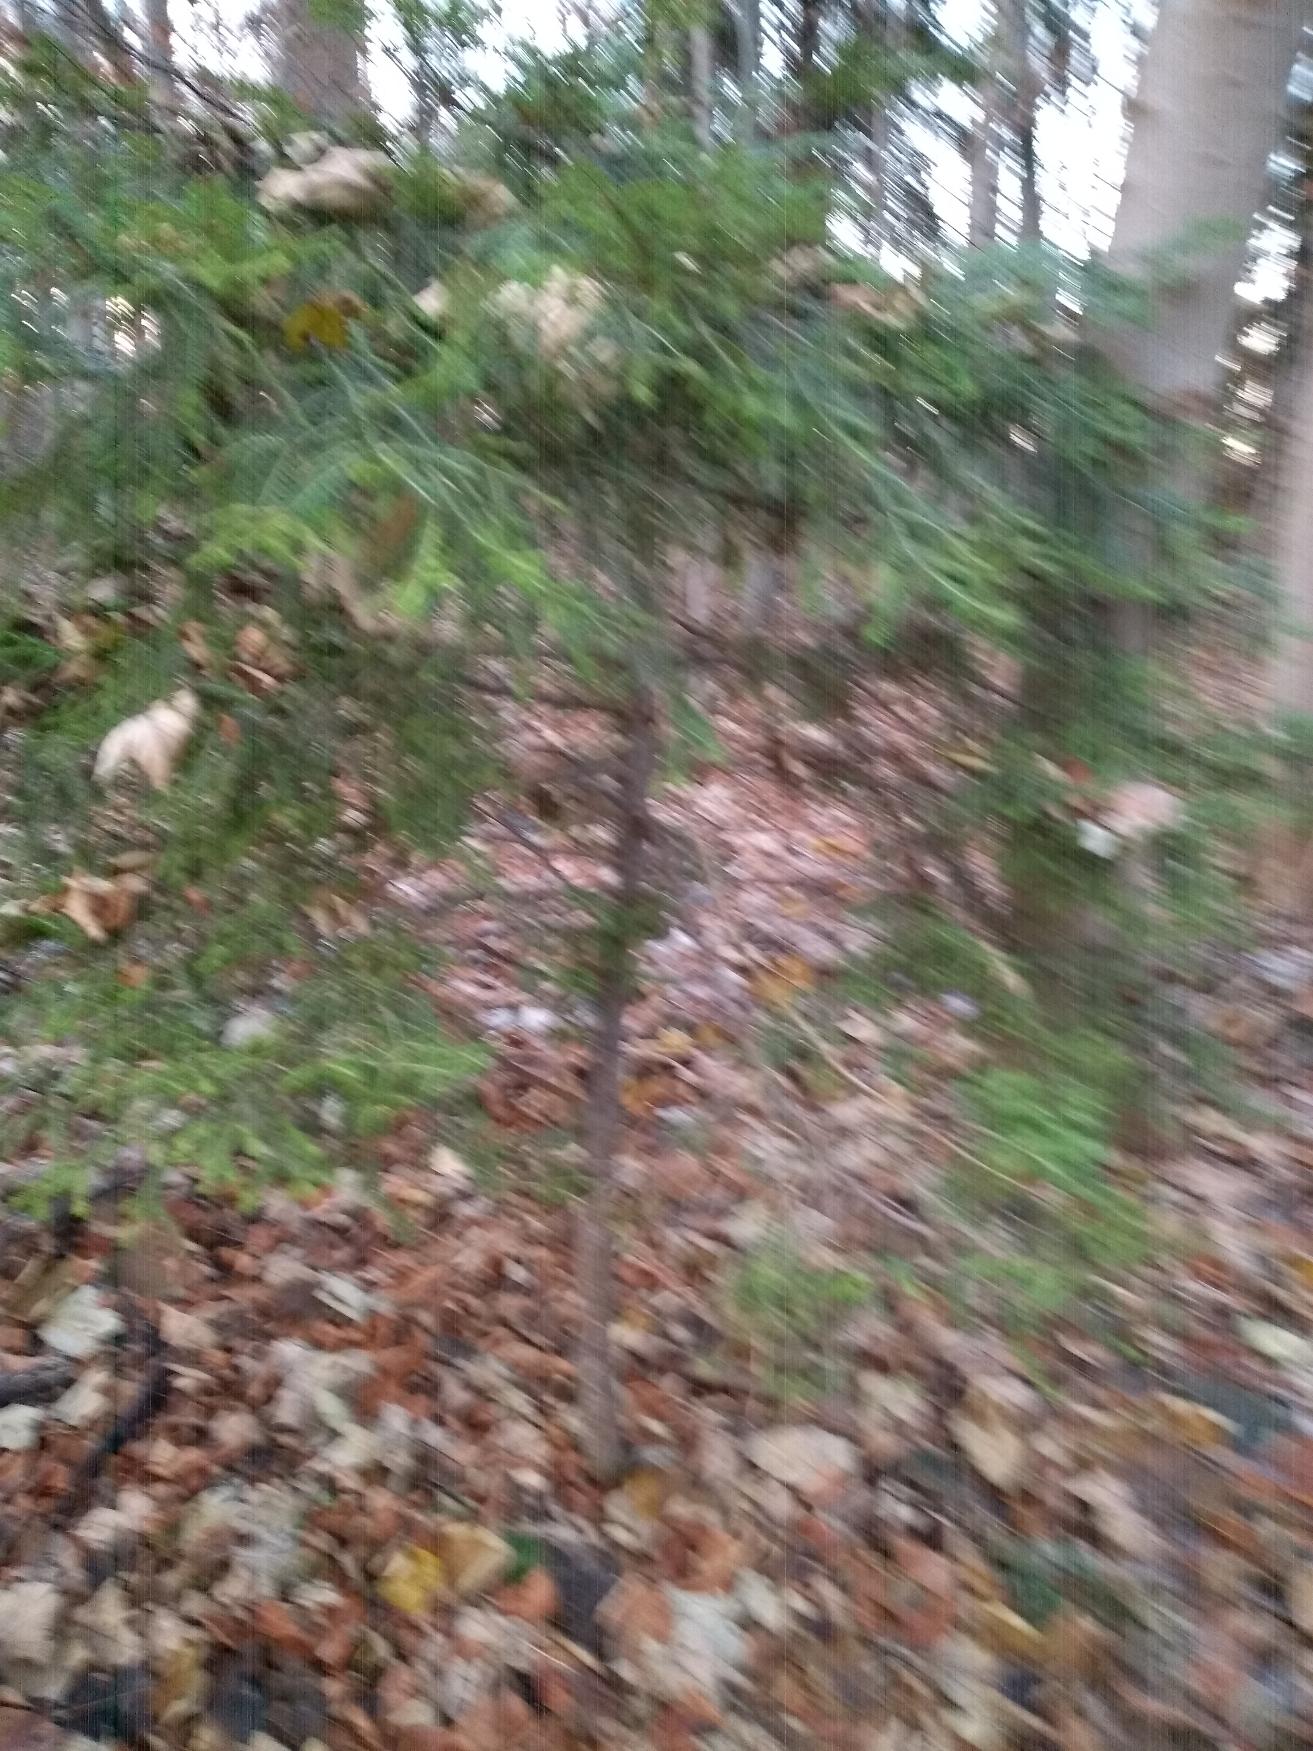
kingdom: Plantae
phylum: Tracheophyta
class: Pinopsida
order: Pinales
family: Pinaceae
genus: Abies
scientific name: Abies
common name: Ædelgranslægten
